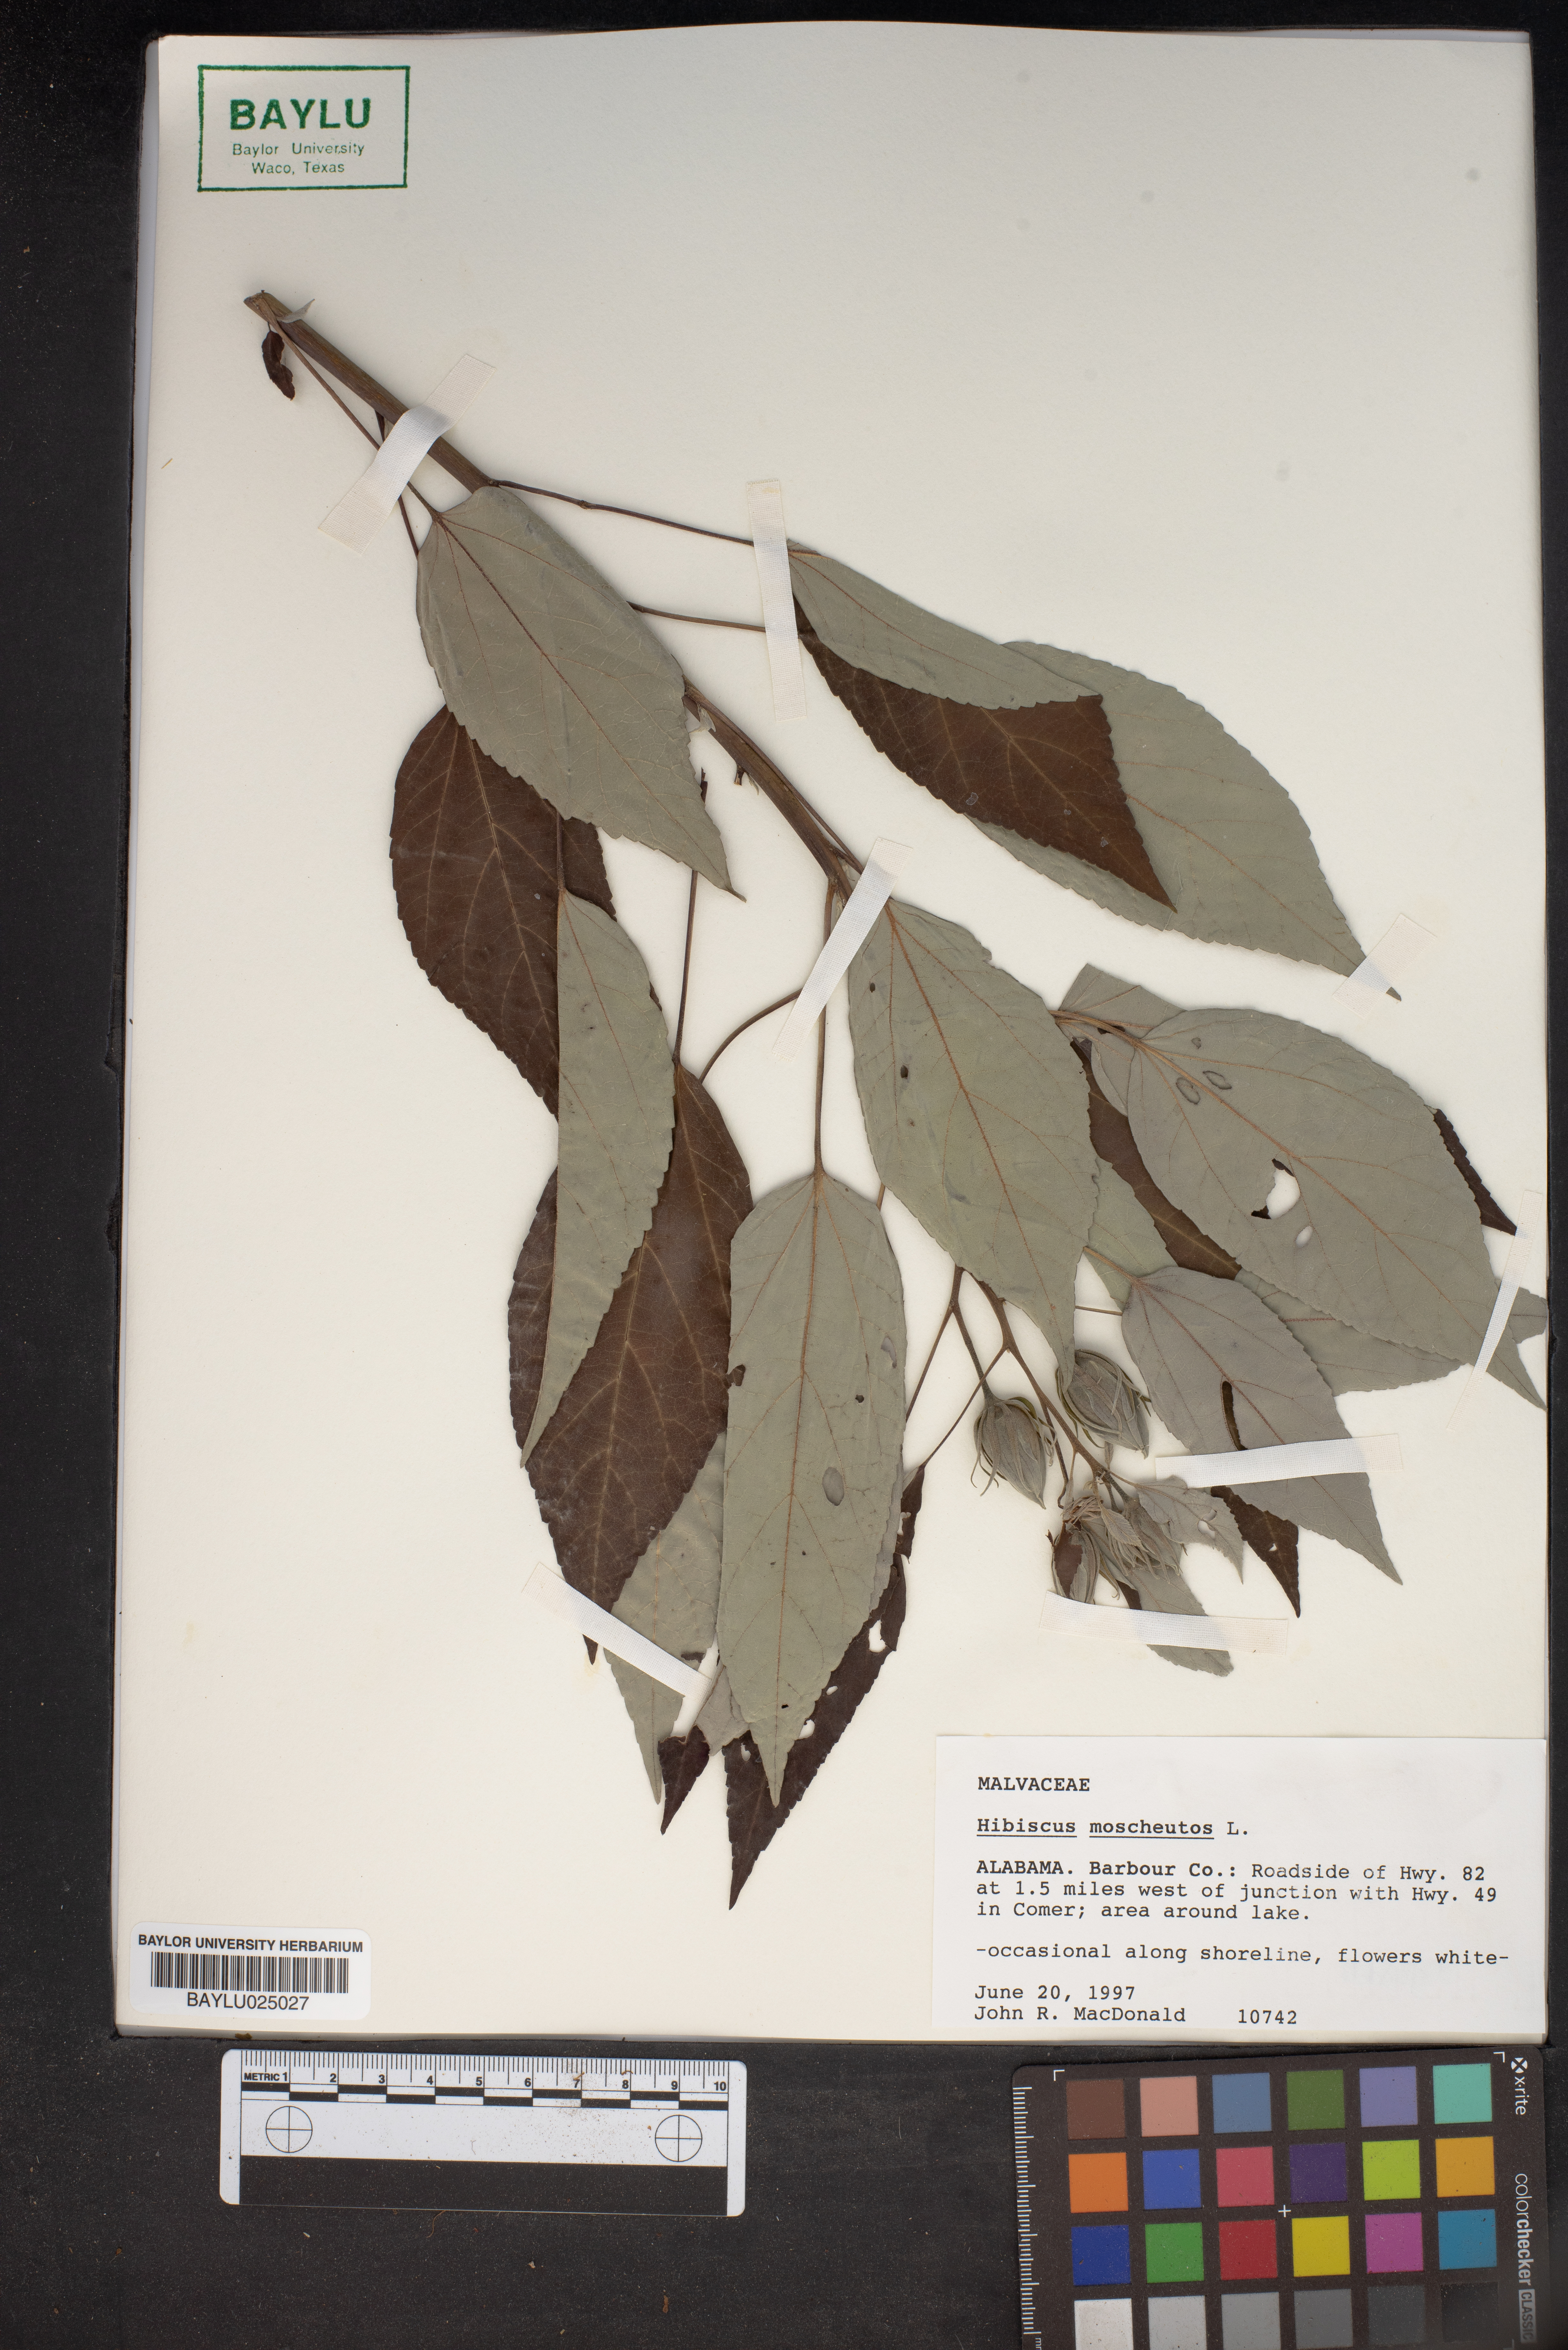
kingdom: Plantae
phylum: Tracheophyta
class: Magnoliopsida
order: Malvales
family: Malvaceae
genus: Hibiscus
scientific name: Hibiscus moscheutos
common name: Common rose-mallow
